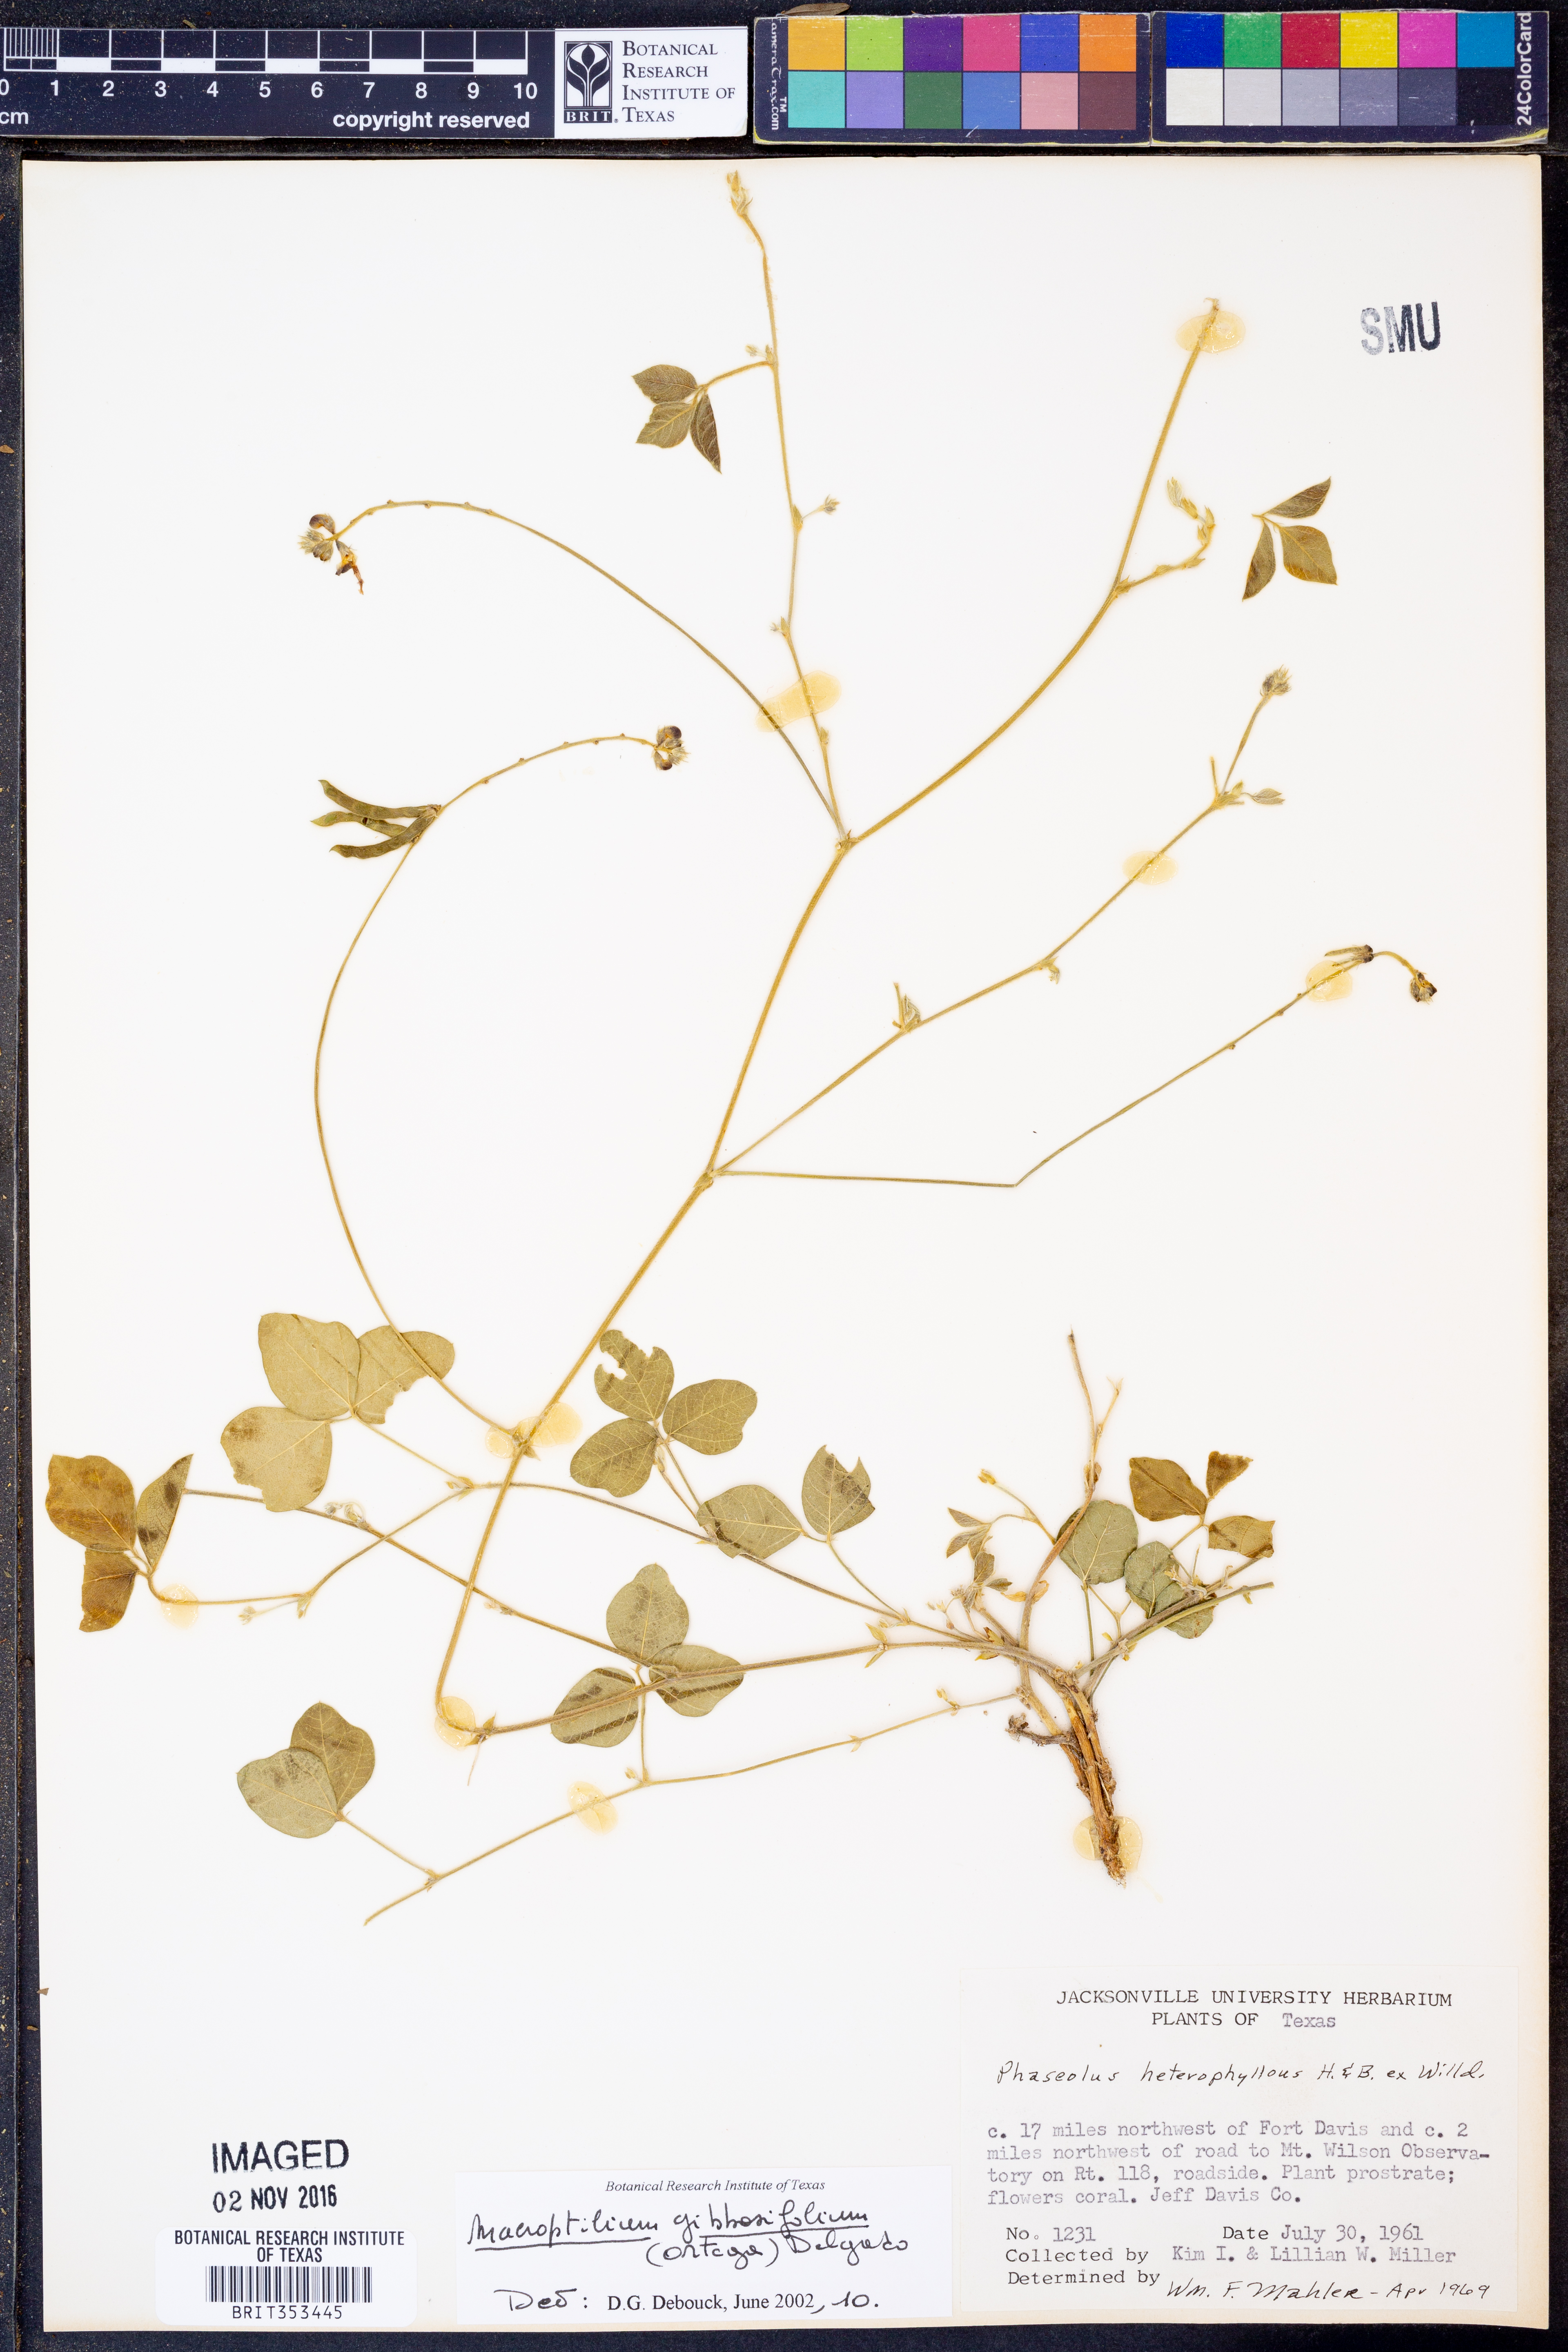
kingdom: Plantae
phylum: Tracheophyta
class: Magnoliopsida
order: Fabales
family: Fabaceae
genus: Macroptilium
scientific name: Macroptilium gibbosifolium
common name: Variableleaf bushbean
